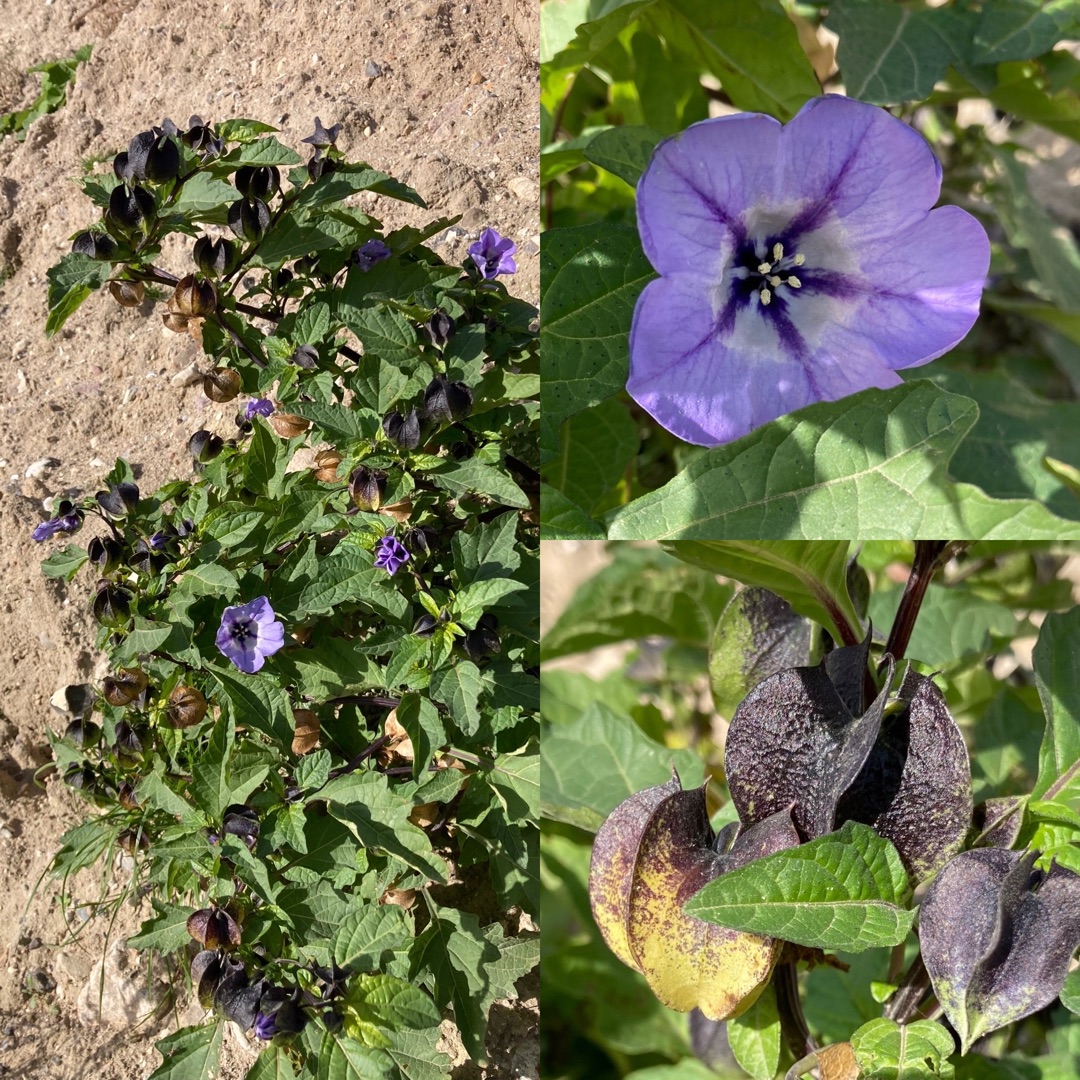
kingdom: Plantae
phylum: Tracheophyta
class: Magnoliopsida
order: Solanales
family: Solanaceae
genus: Nicandra
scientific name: Nicandra physalodes
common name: Kantbæger
